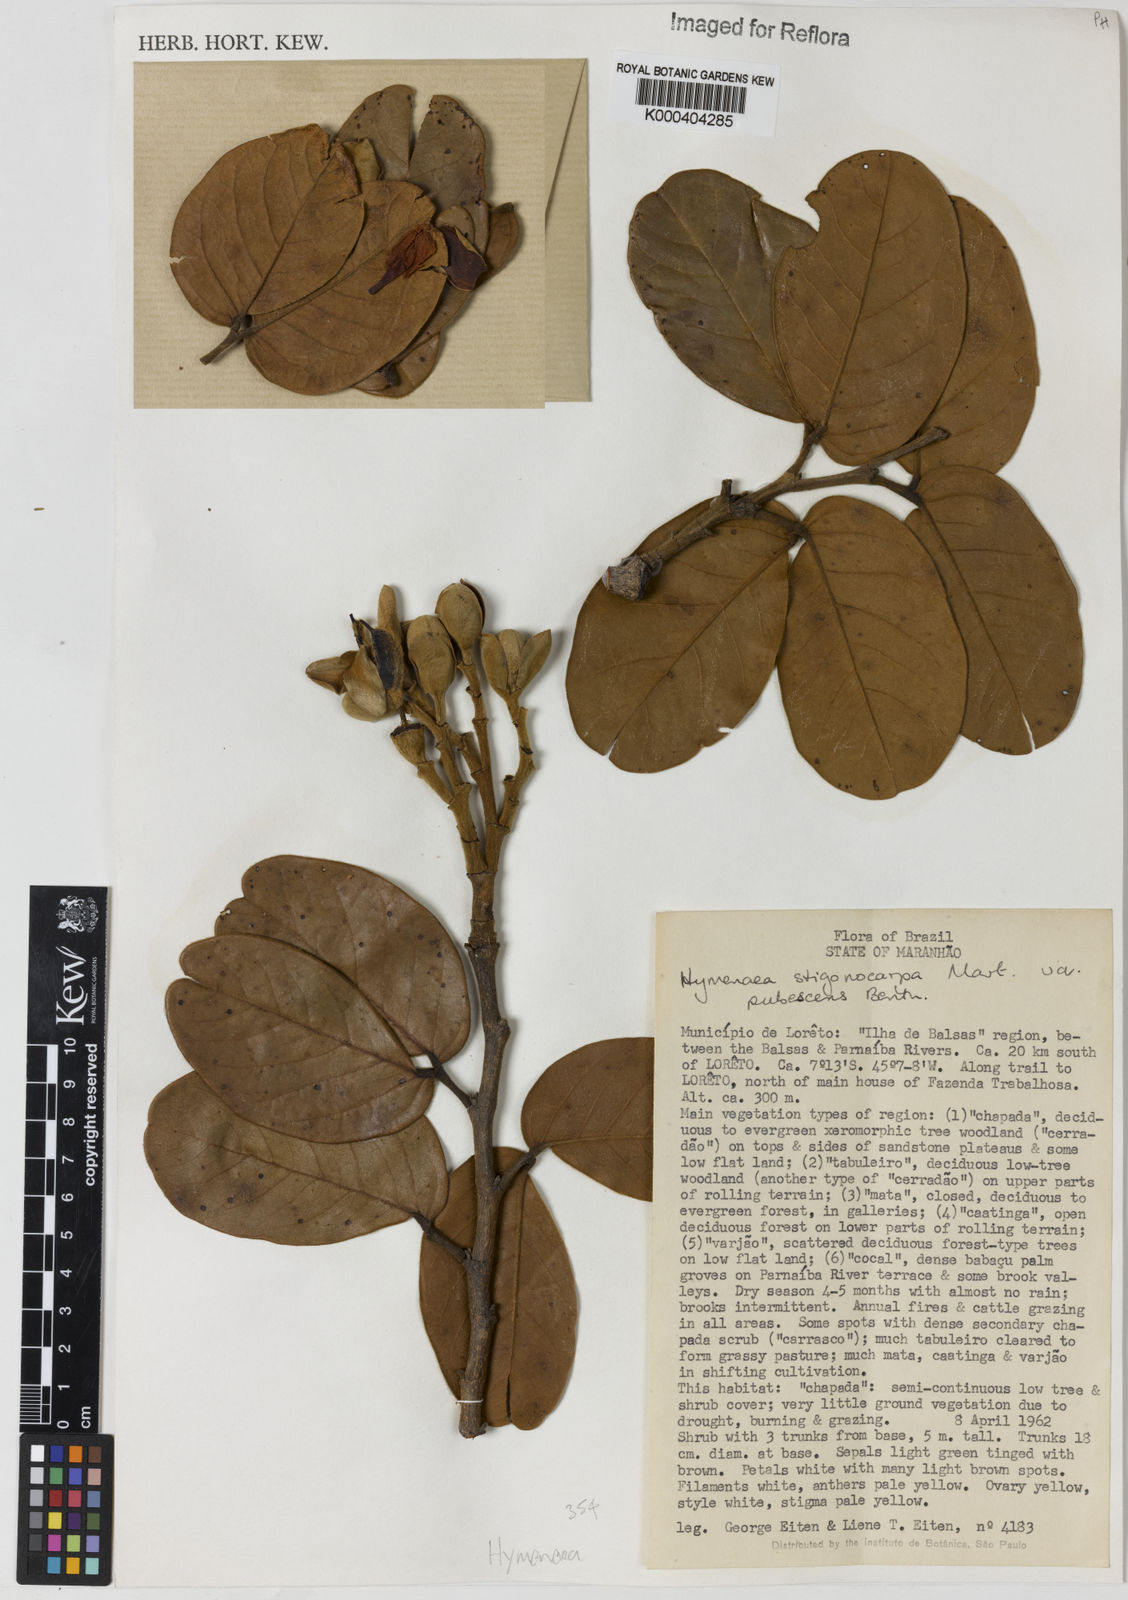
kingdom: Plantae
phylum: Tracheophyta
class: Magnoliopsida
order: Fabales
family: Fabaceae
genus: Hymenaea
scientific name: Hymenaea stigonocarpa
